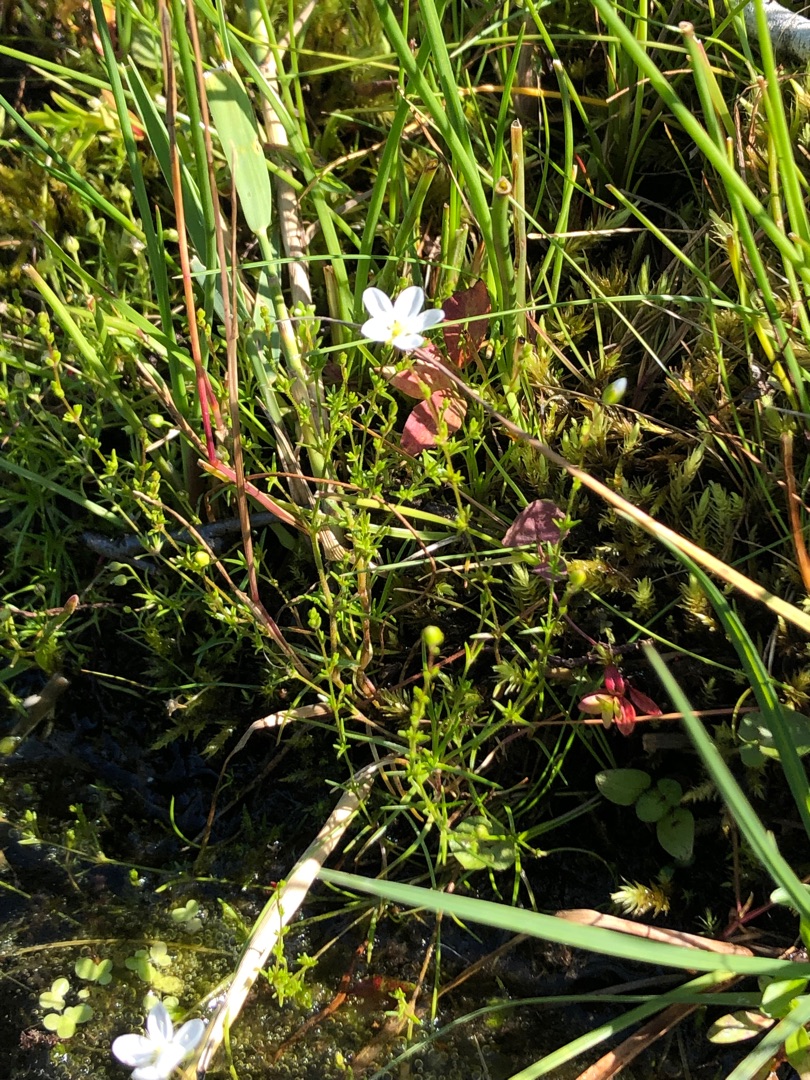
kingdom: Plantae
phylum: Tracheophyta
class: Magnoliopsida
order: Caryophyllales
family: Caryophyllaceae
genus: Sagina
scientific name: Sagina nodosa
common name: Knude-firling
